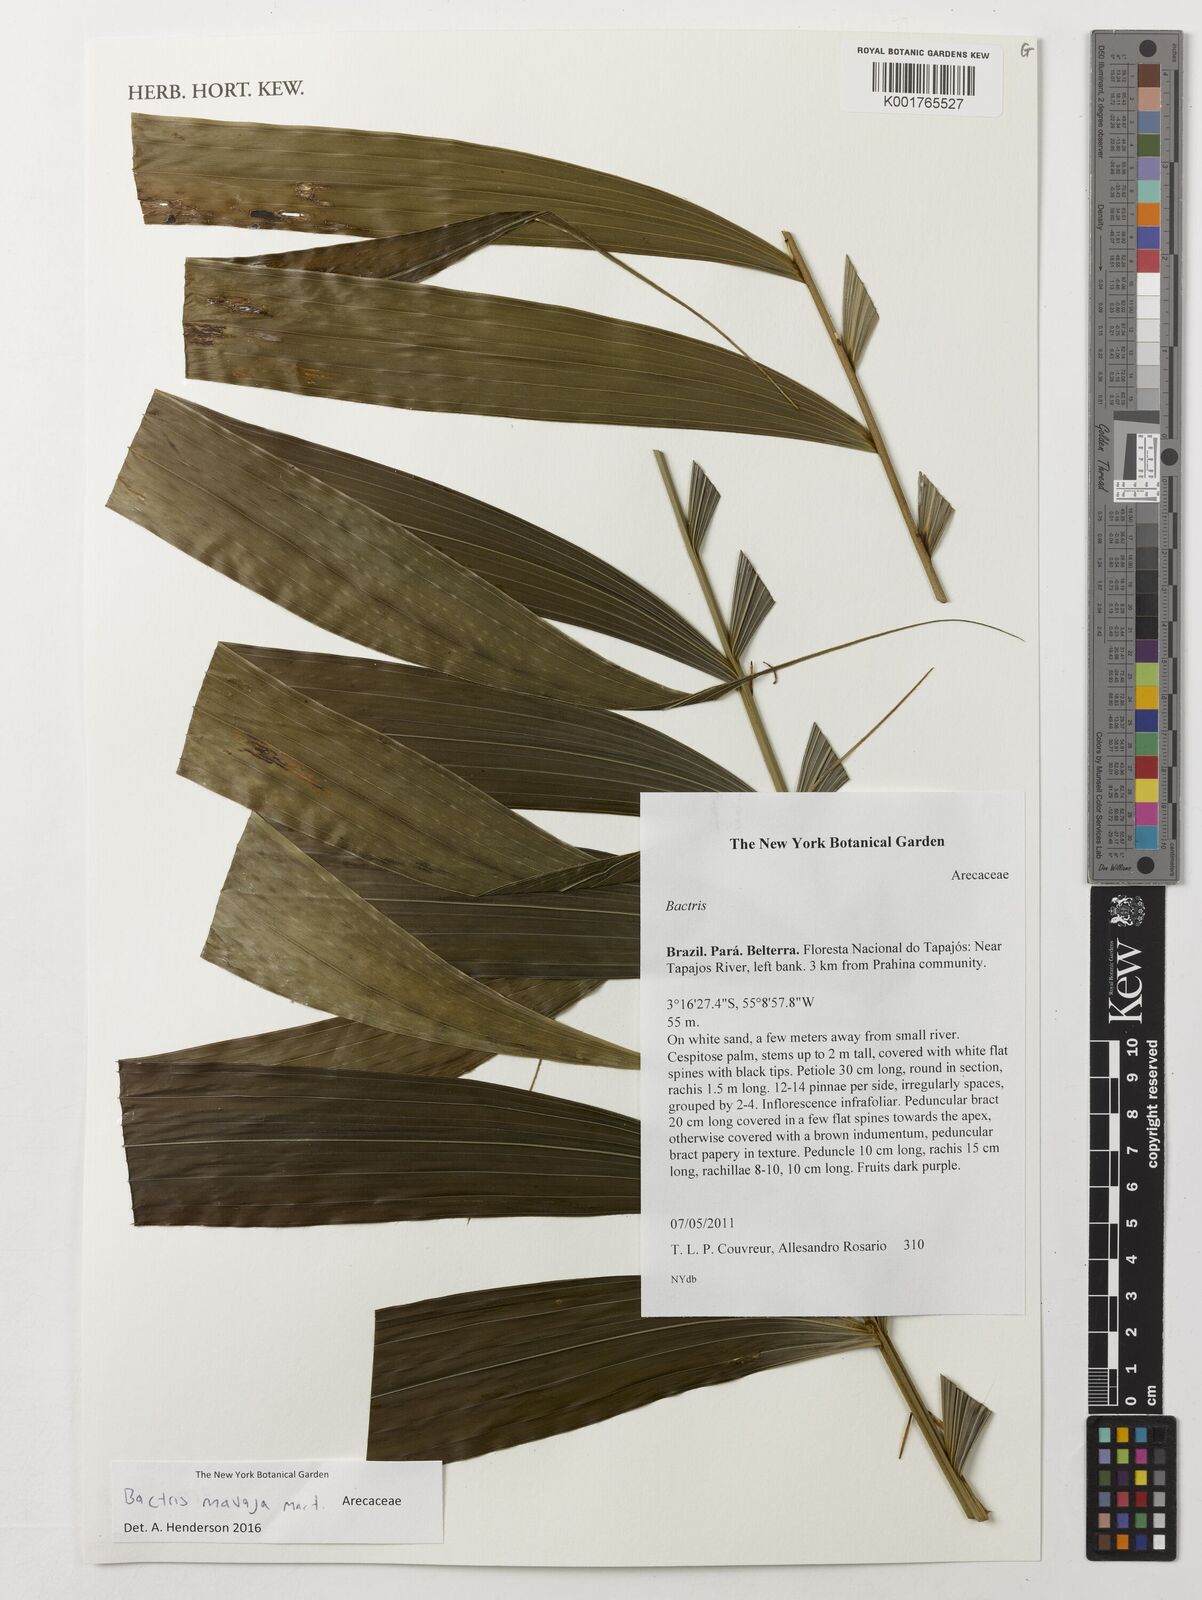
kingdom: Plantae
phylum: Tracheophyta
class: Liliopsida
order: Arecales
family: Arecaceae
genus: Bactris
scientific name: Bactris maraja
